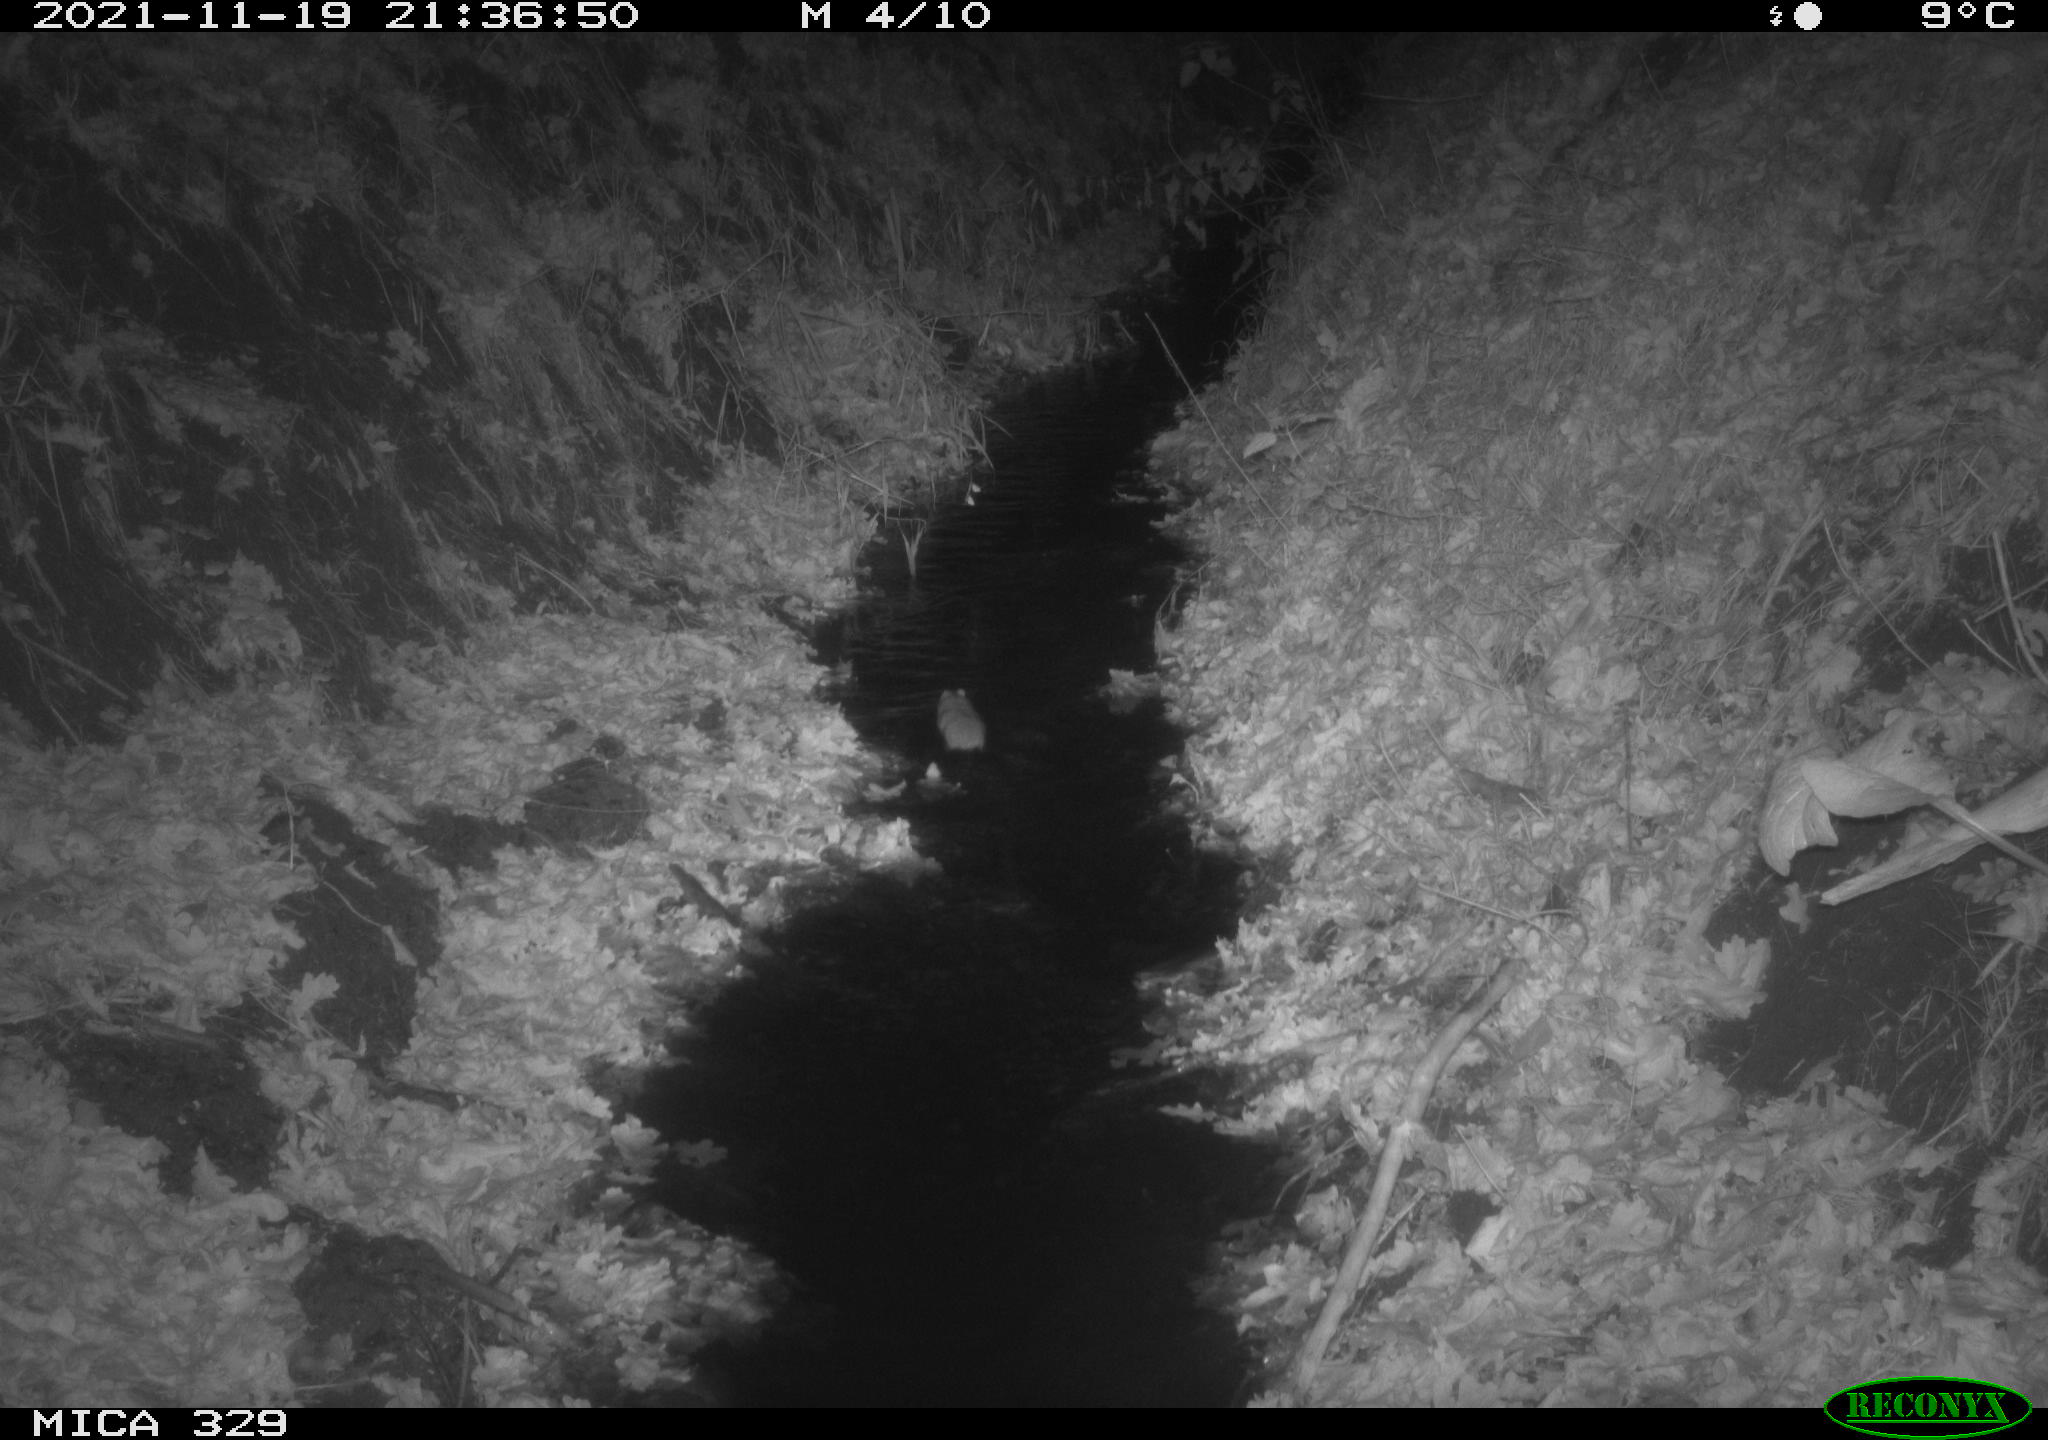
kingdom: Animalia
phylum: Chordata
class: Mammalia
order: Rodentia
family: Muridae
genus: Rattus
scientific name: Rattus norvegicus
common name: Brown rat
